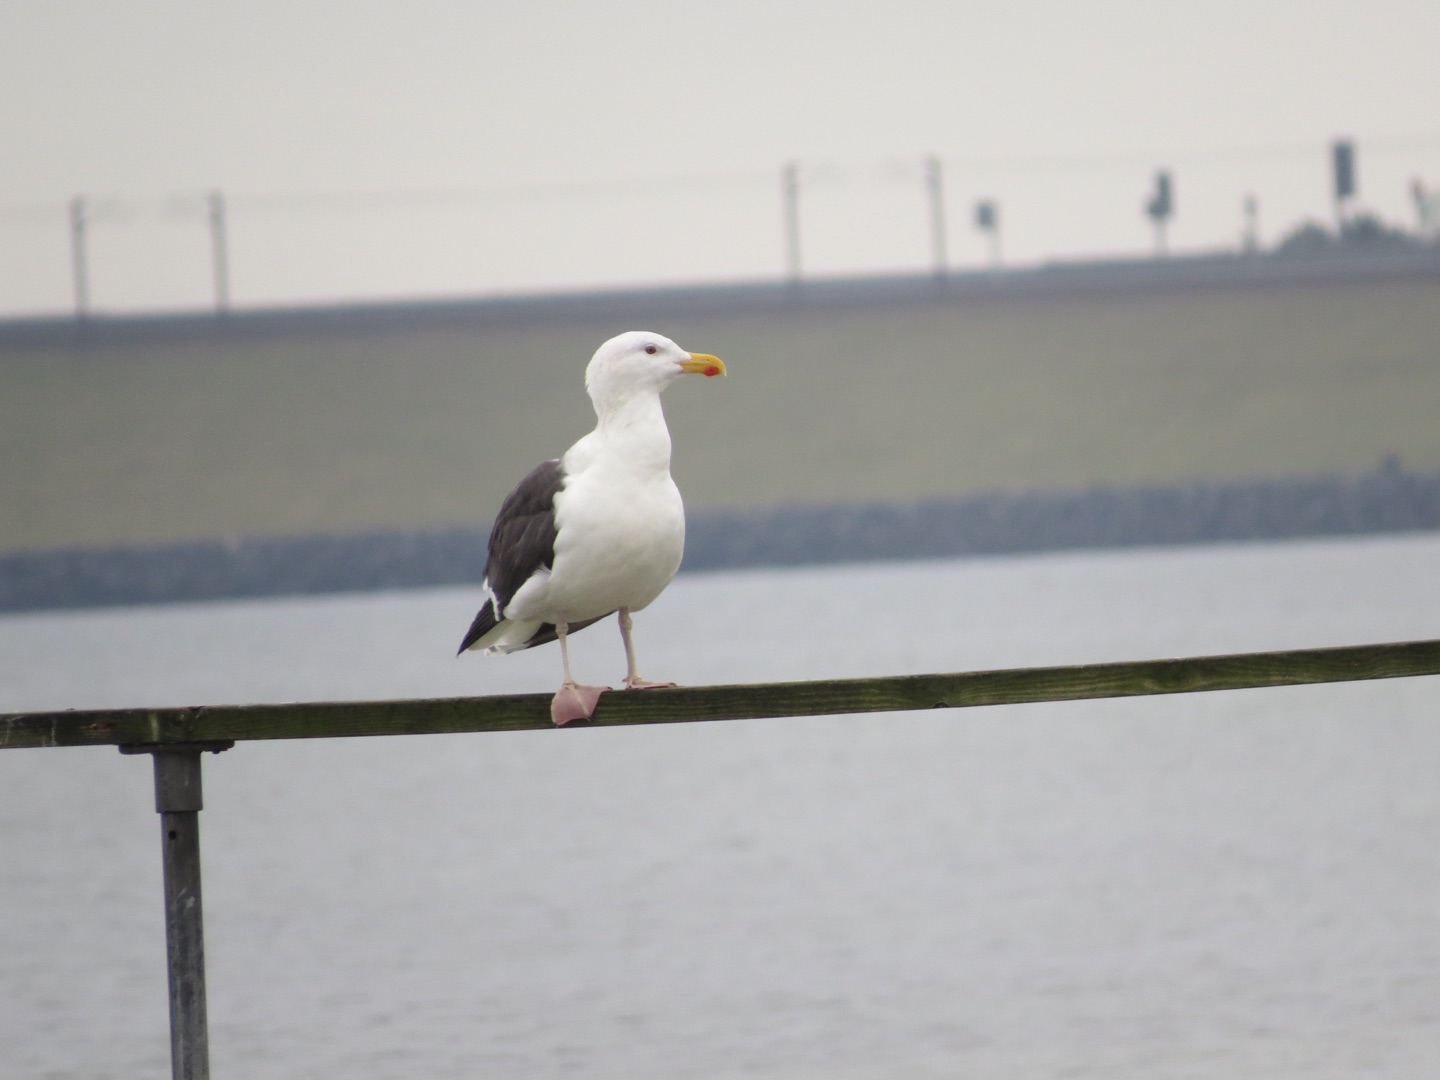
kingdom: Animalia
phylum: Chordata
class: Aves
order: Charadriiformes
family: Laridae
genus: Larus
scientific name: Larus marinus
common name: Svartbag
